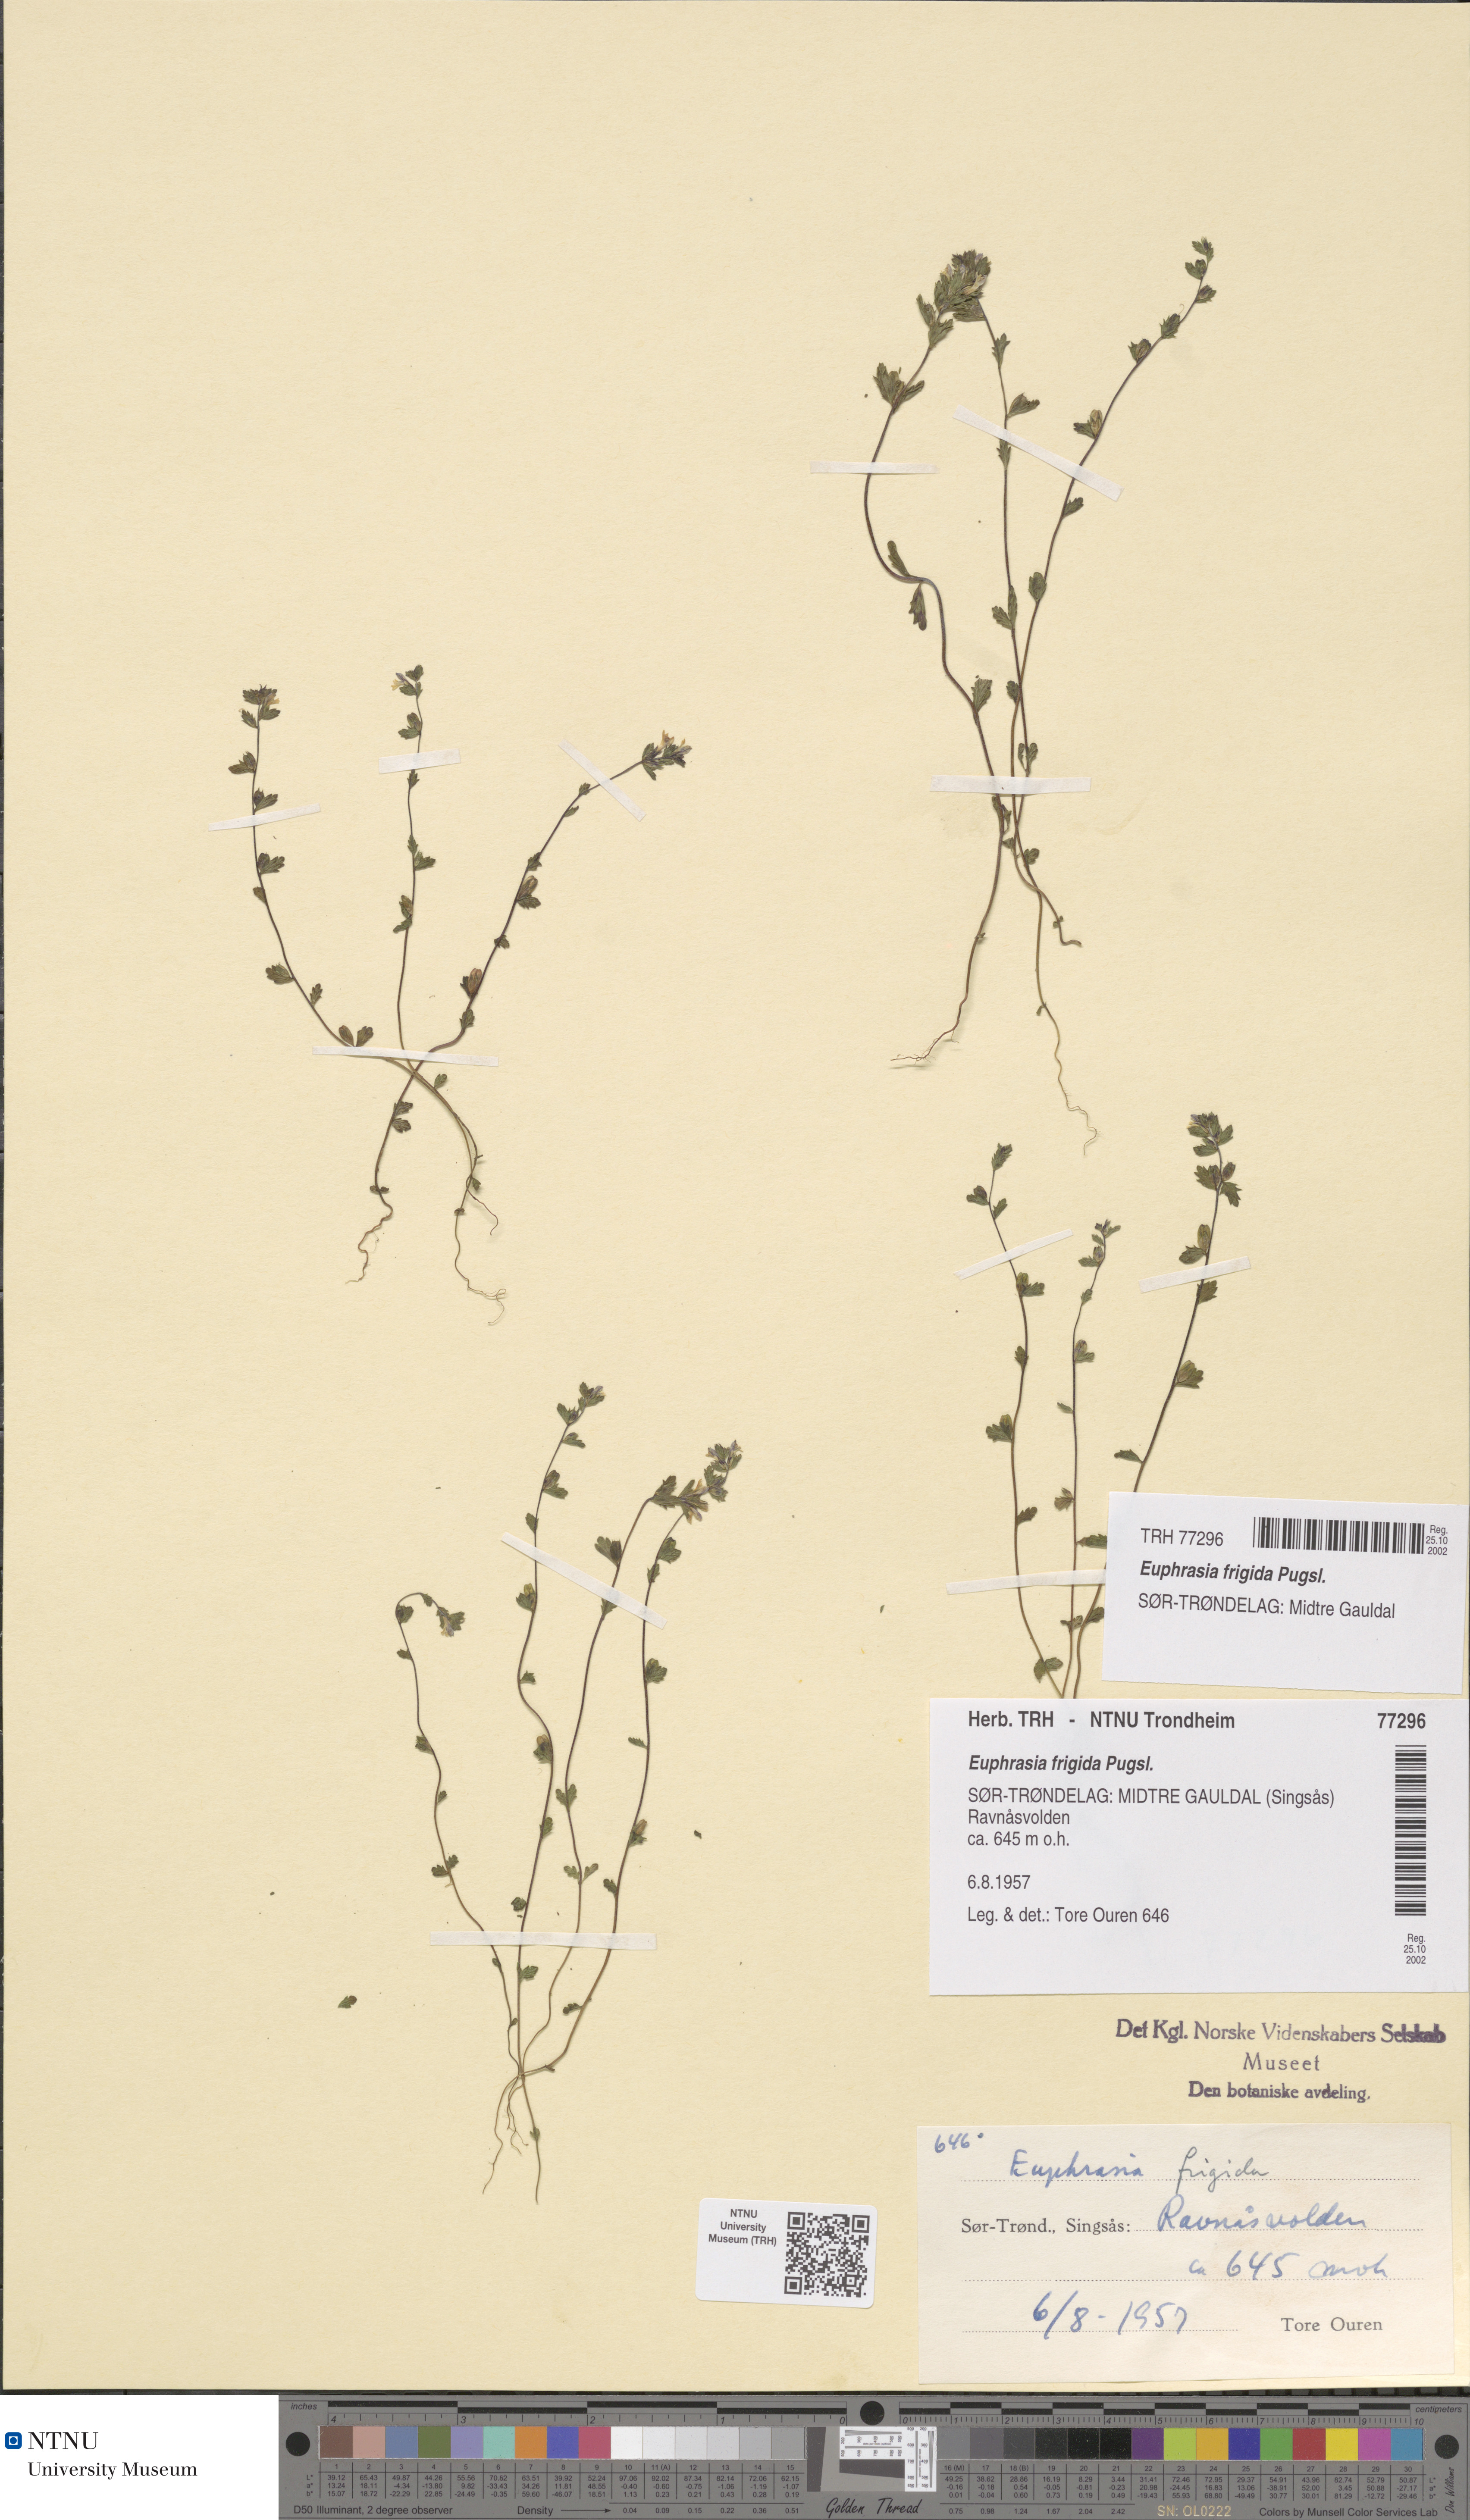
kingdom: Plantae
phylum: Tracheophyta
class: Magnoliopsida
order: Lamiales
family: Orobanchaceae
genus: Euphrasia
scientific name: Euphrasia wettsteinii
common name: Wettstein's eyebright
